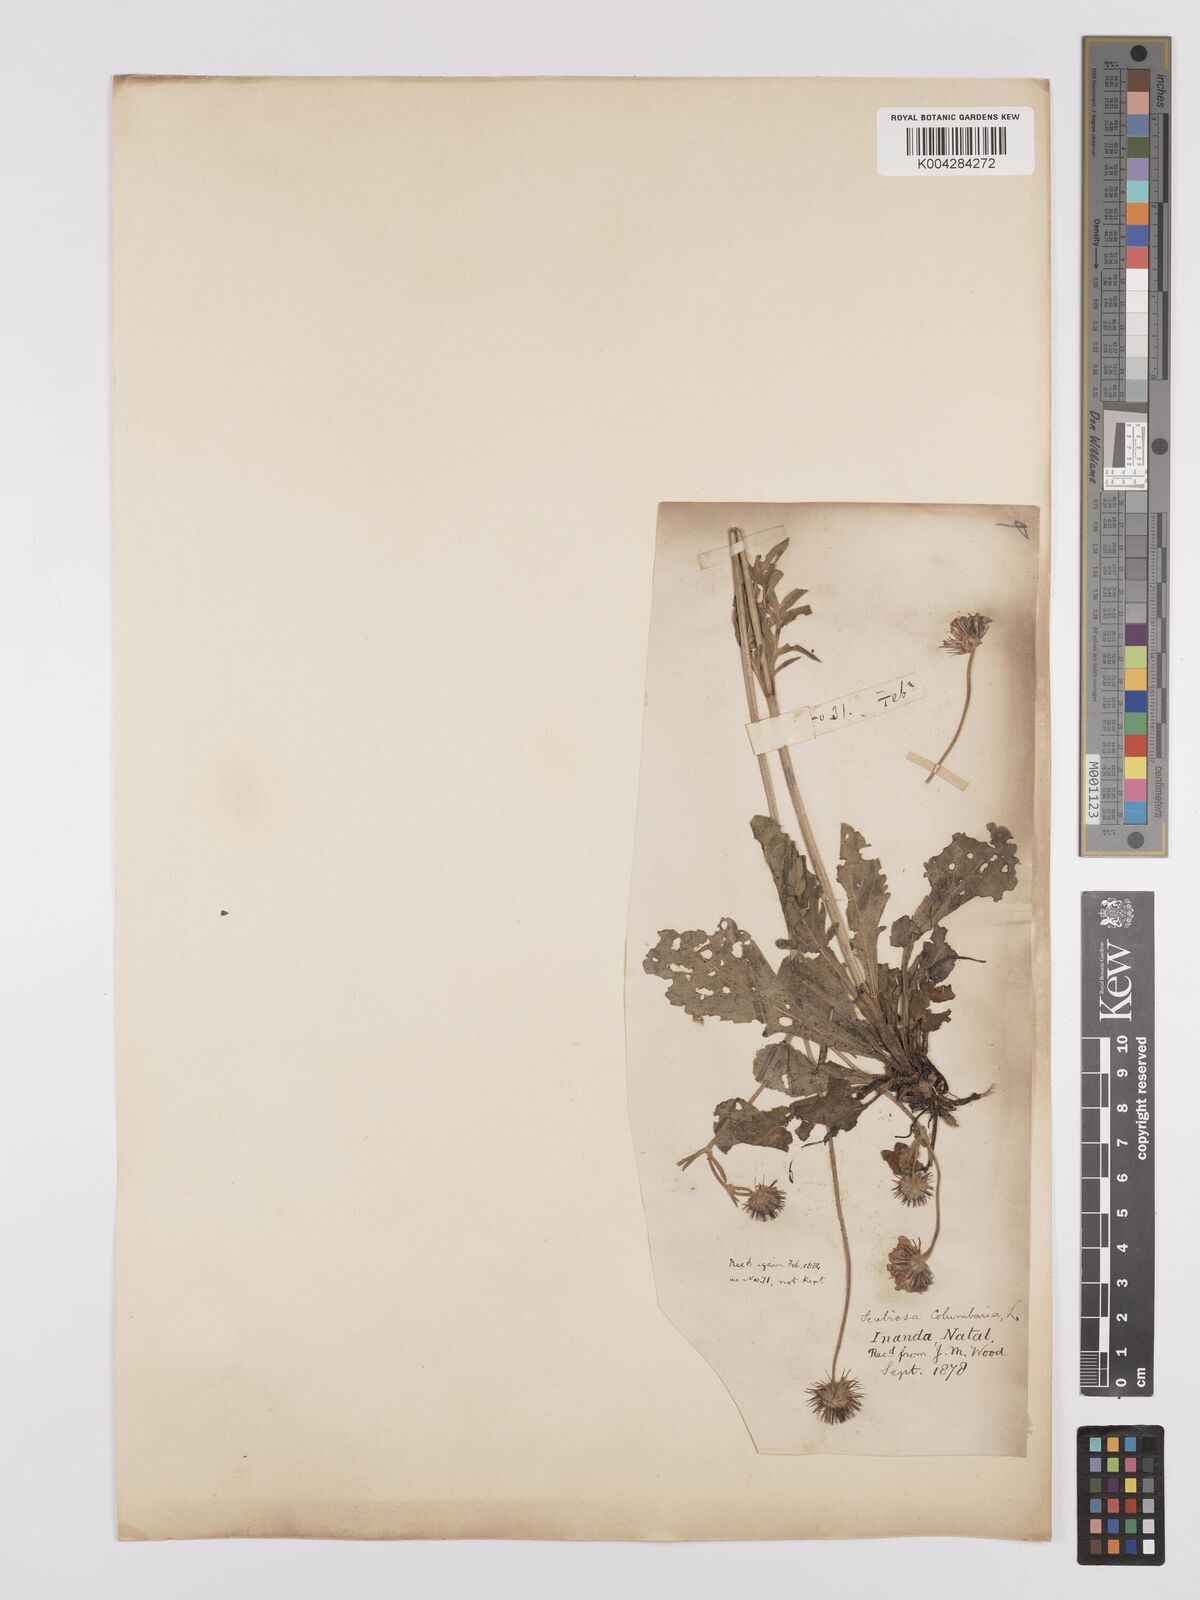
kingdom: Plantae
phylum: Tracheophyta
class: Magnoliopsida
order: Dipsacales
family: Caprifoliaceae
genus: Scabiosa
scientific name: Scabiosa columbaria
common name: Small scabious
